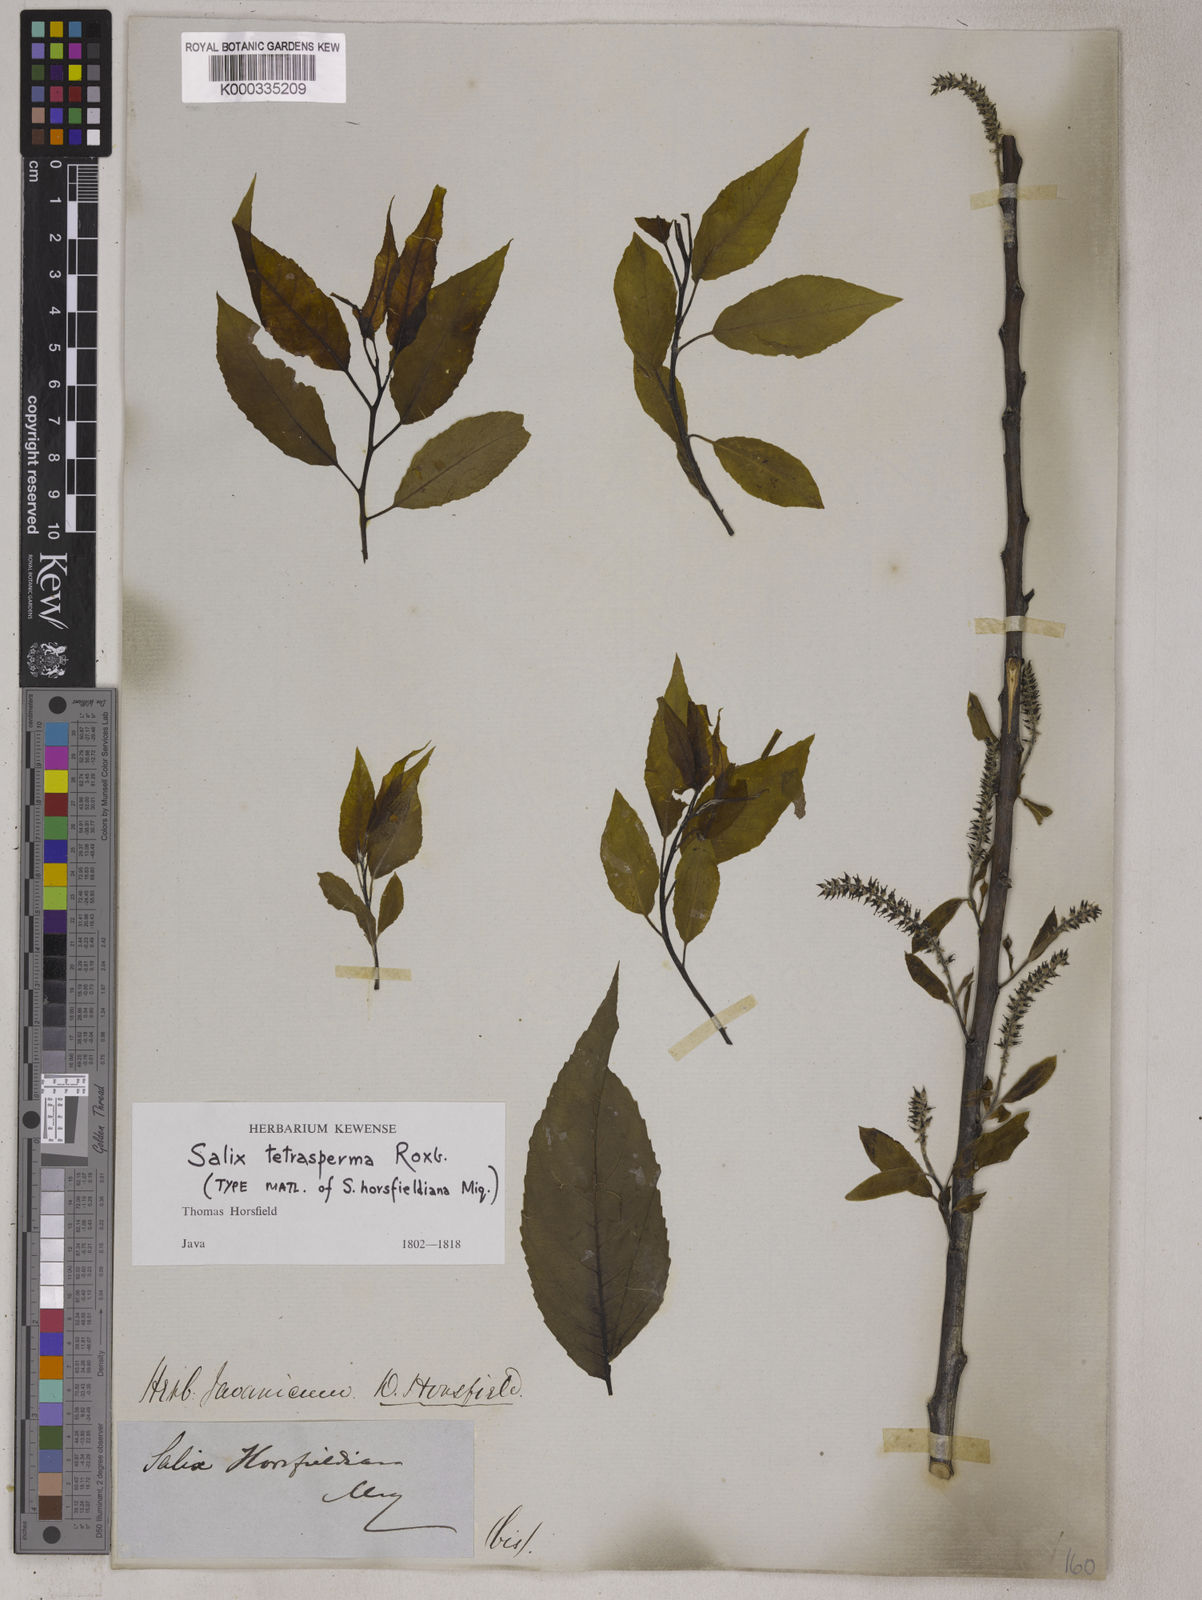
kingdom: Plantae
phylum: Tracheophyta
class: Magnoliopsida
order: Malpighiales
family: Salicaceae
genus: Salix
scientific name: Salix tetrasperma
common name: Indian willow
